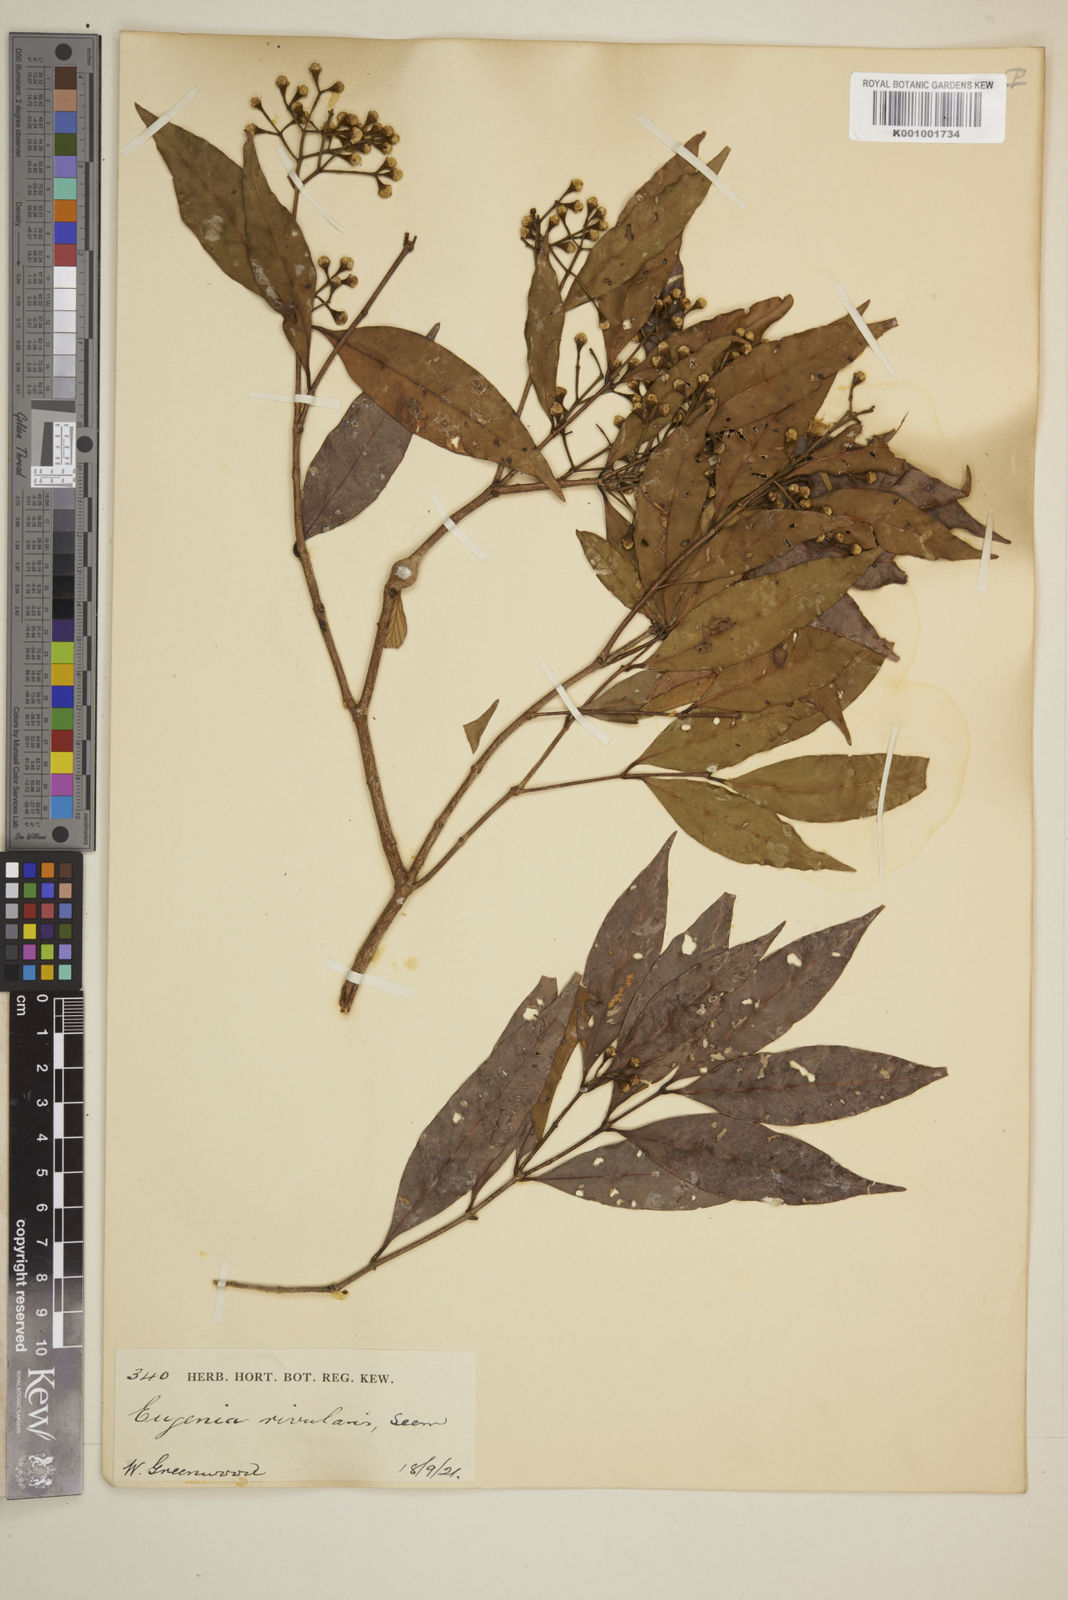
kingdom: Plantae
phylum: Tracheophyta
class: Magnoliopsida
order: Myrtales
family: Myrtaceae
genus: Plinia
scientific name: Plinia rivularis
